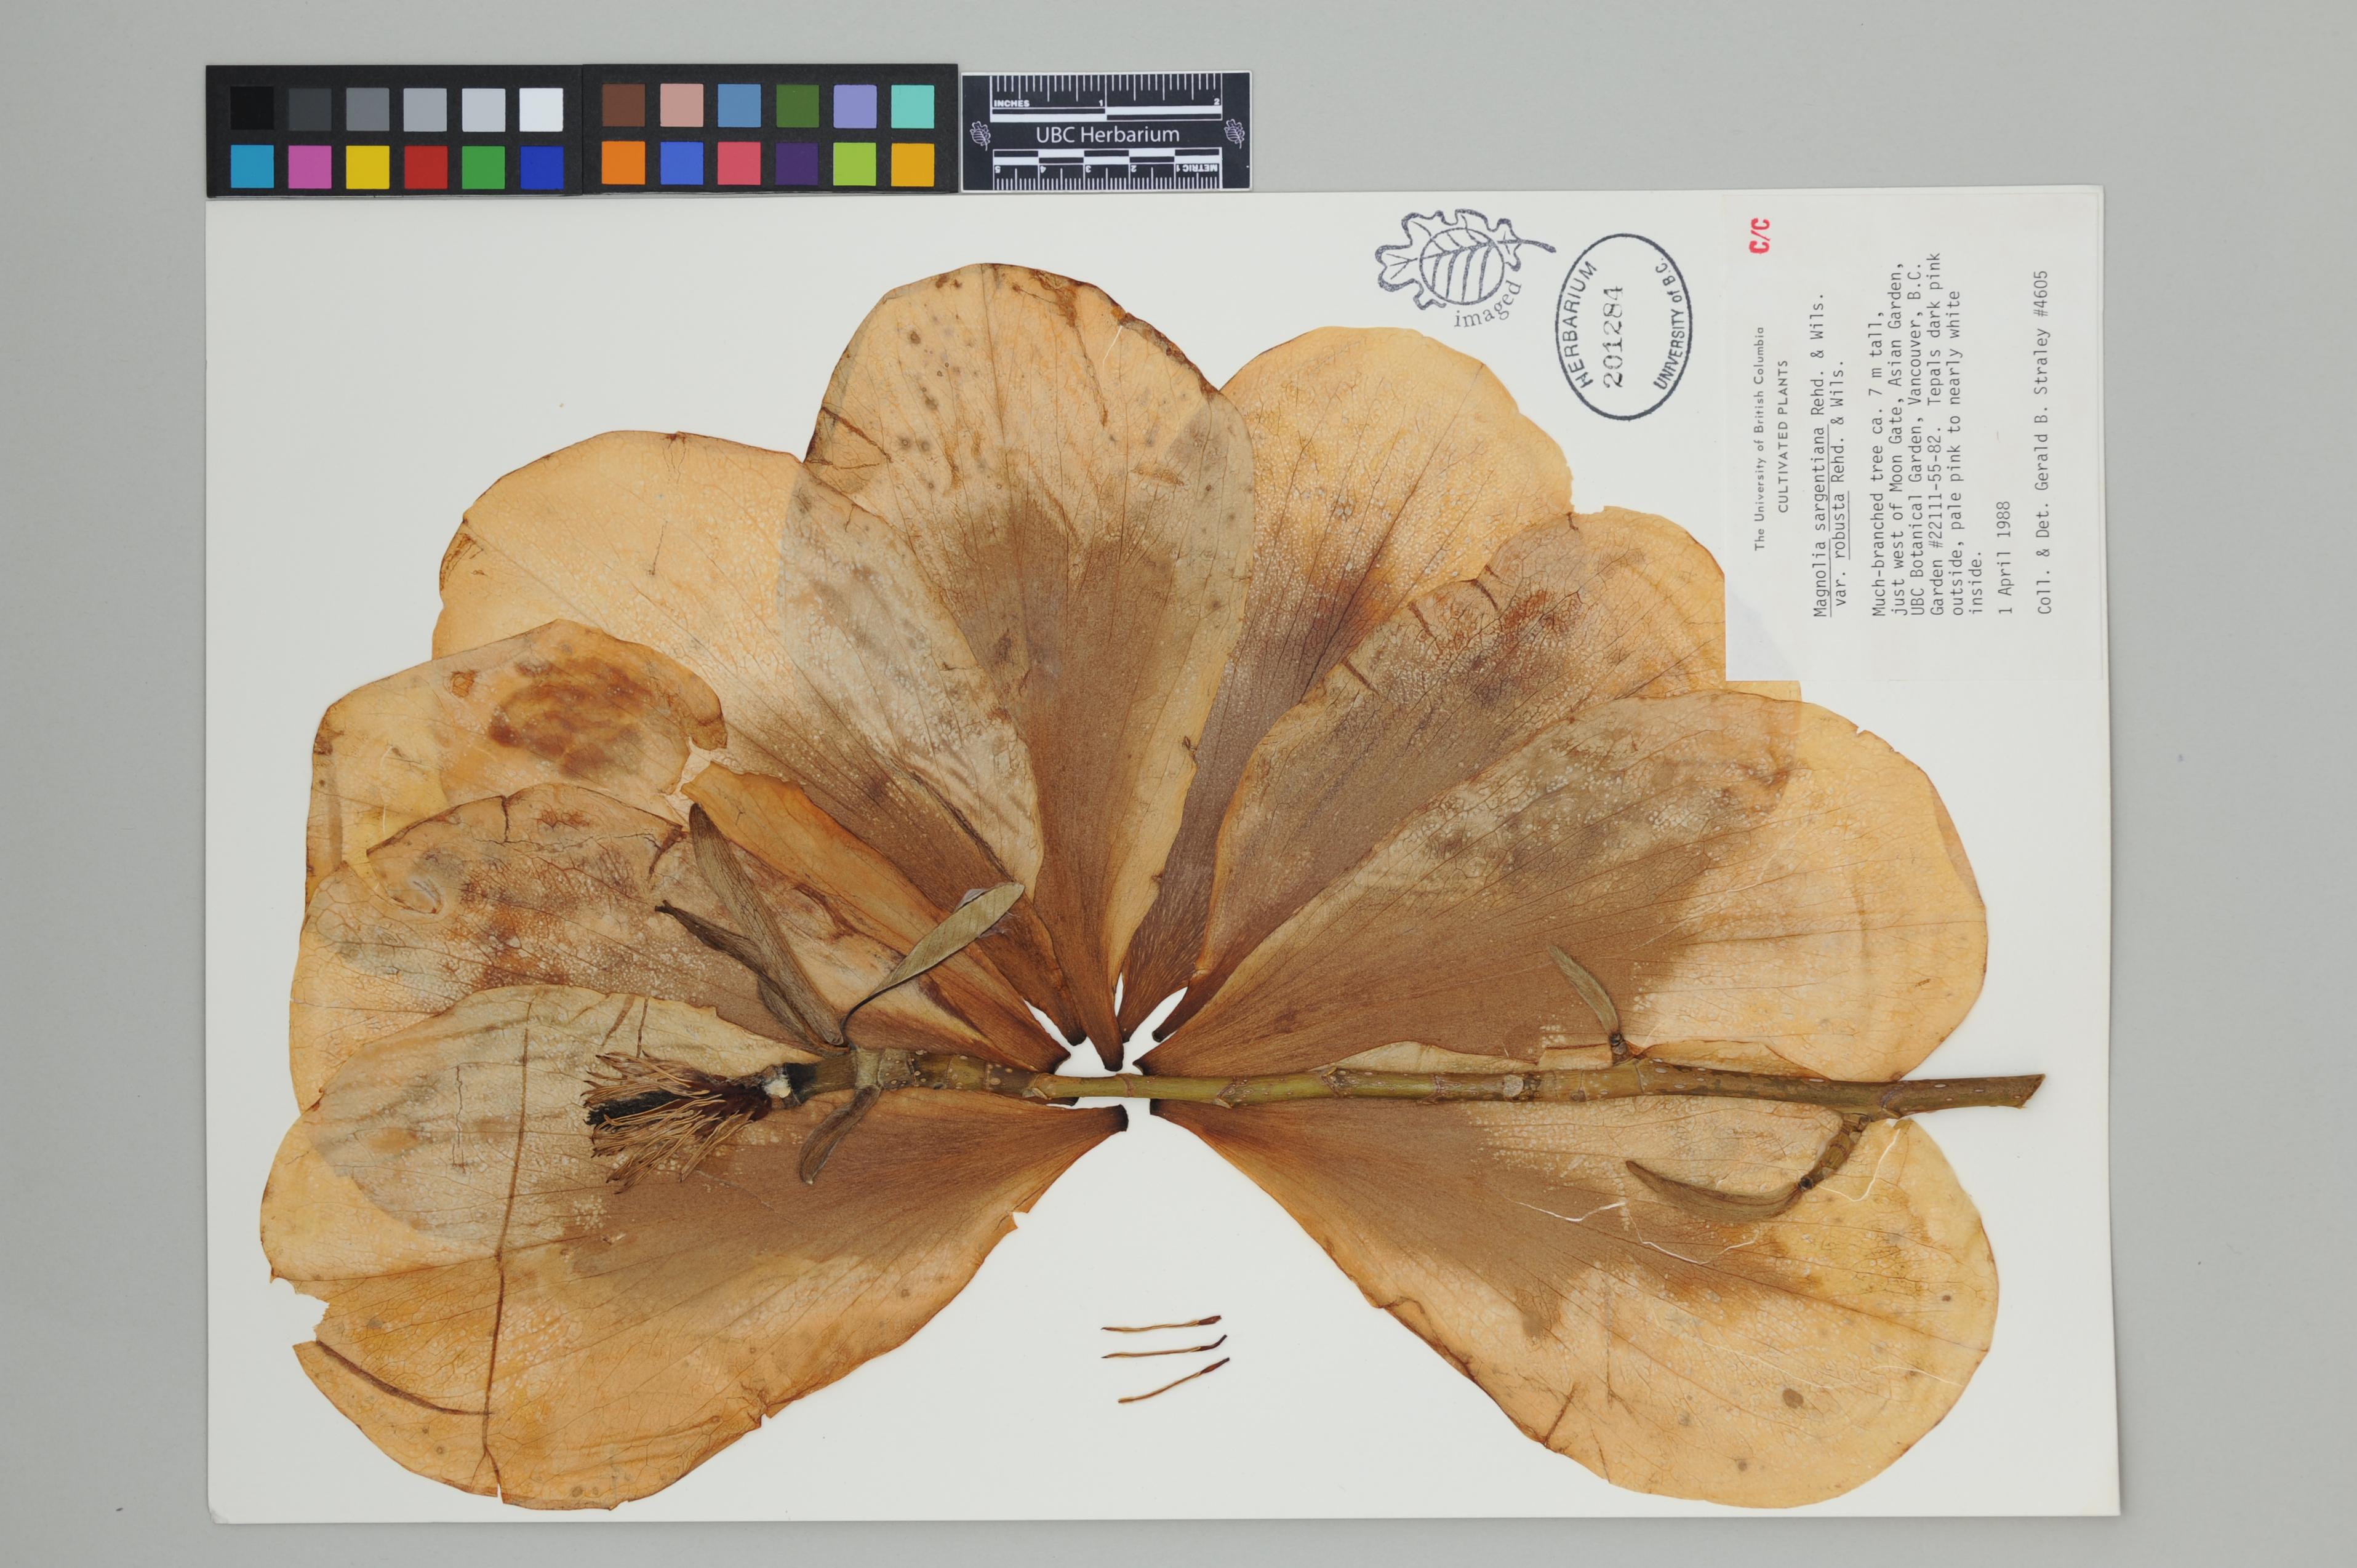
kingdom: Plantae
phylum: Tracheophyta
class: Magnoliopsida
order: Magnoliales
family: Magnoliaceae
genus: Magnolia
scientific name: Magnolia sargentiana
